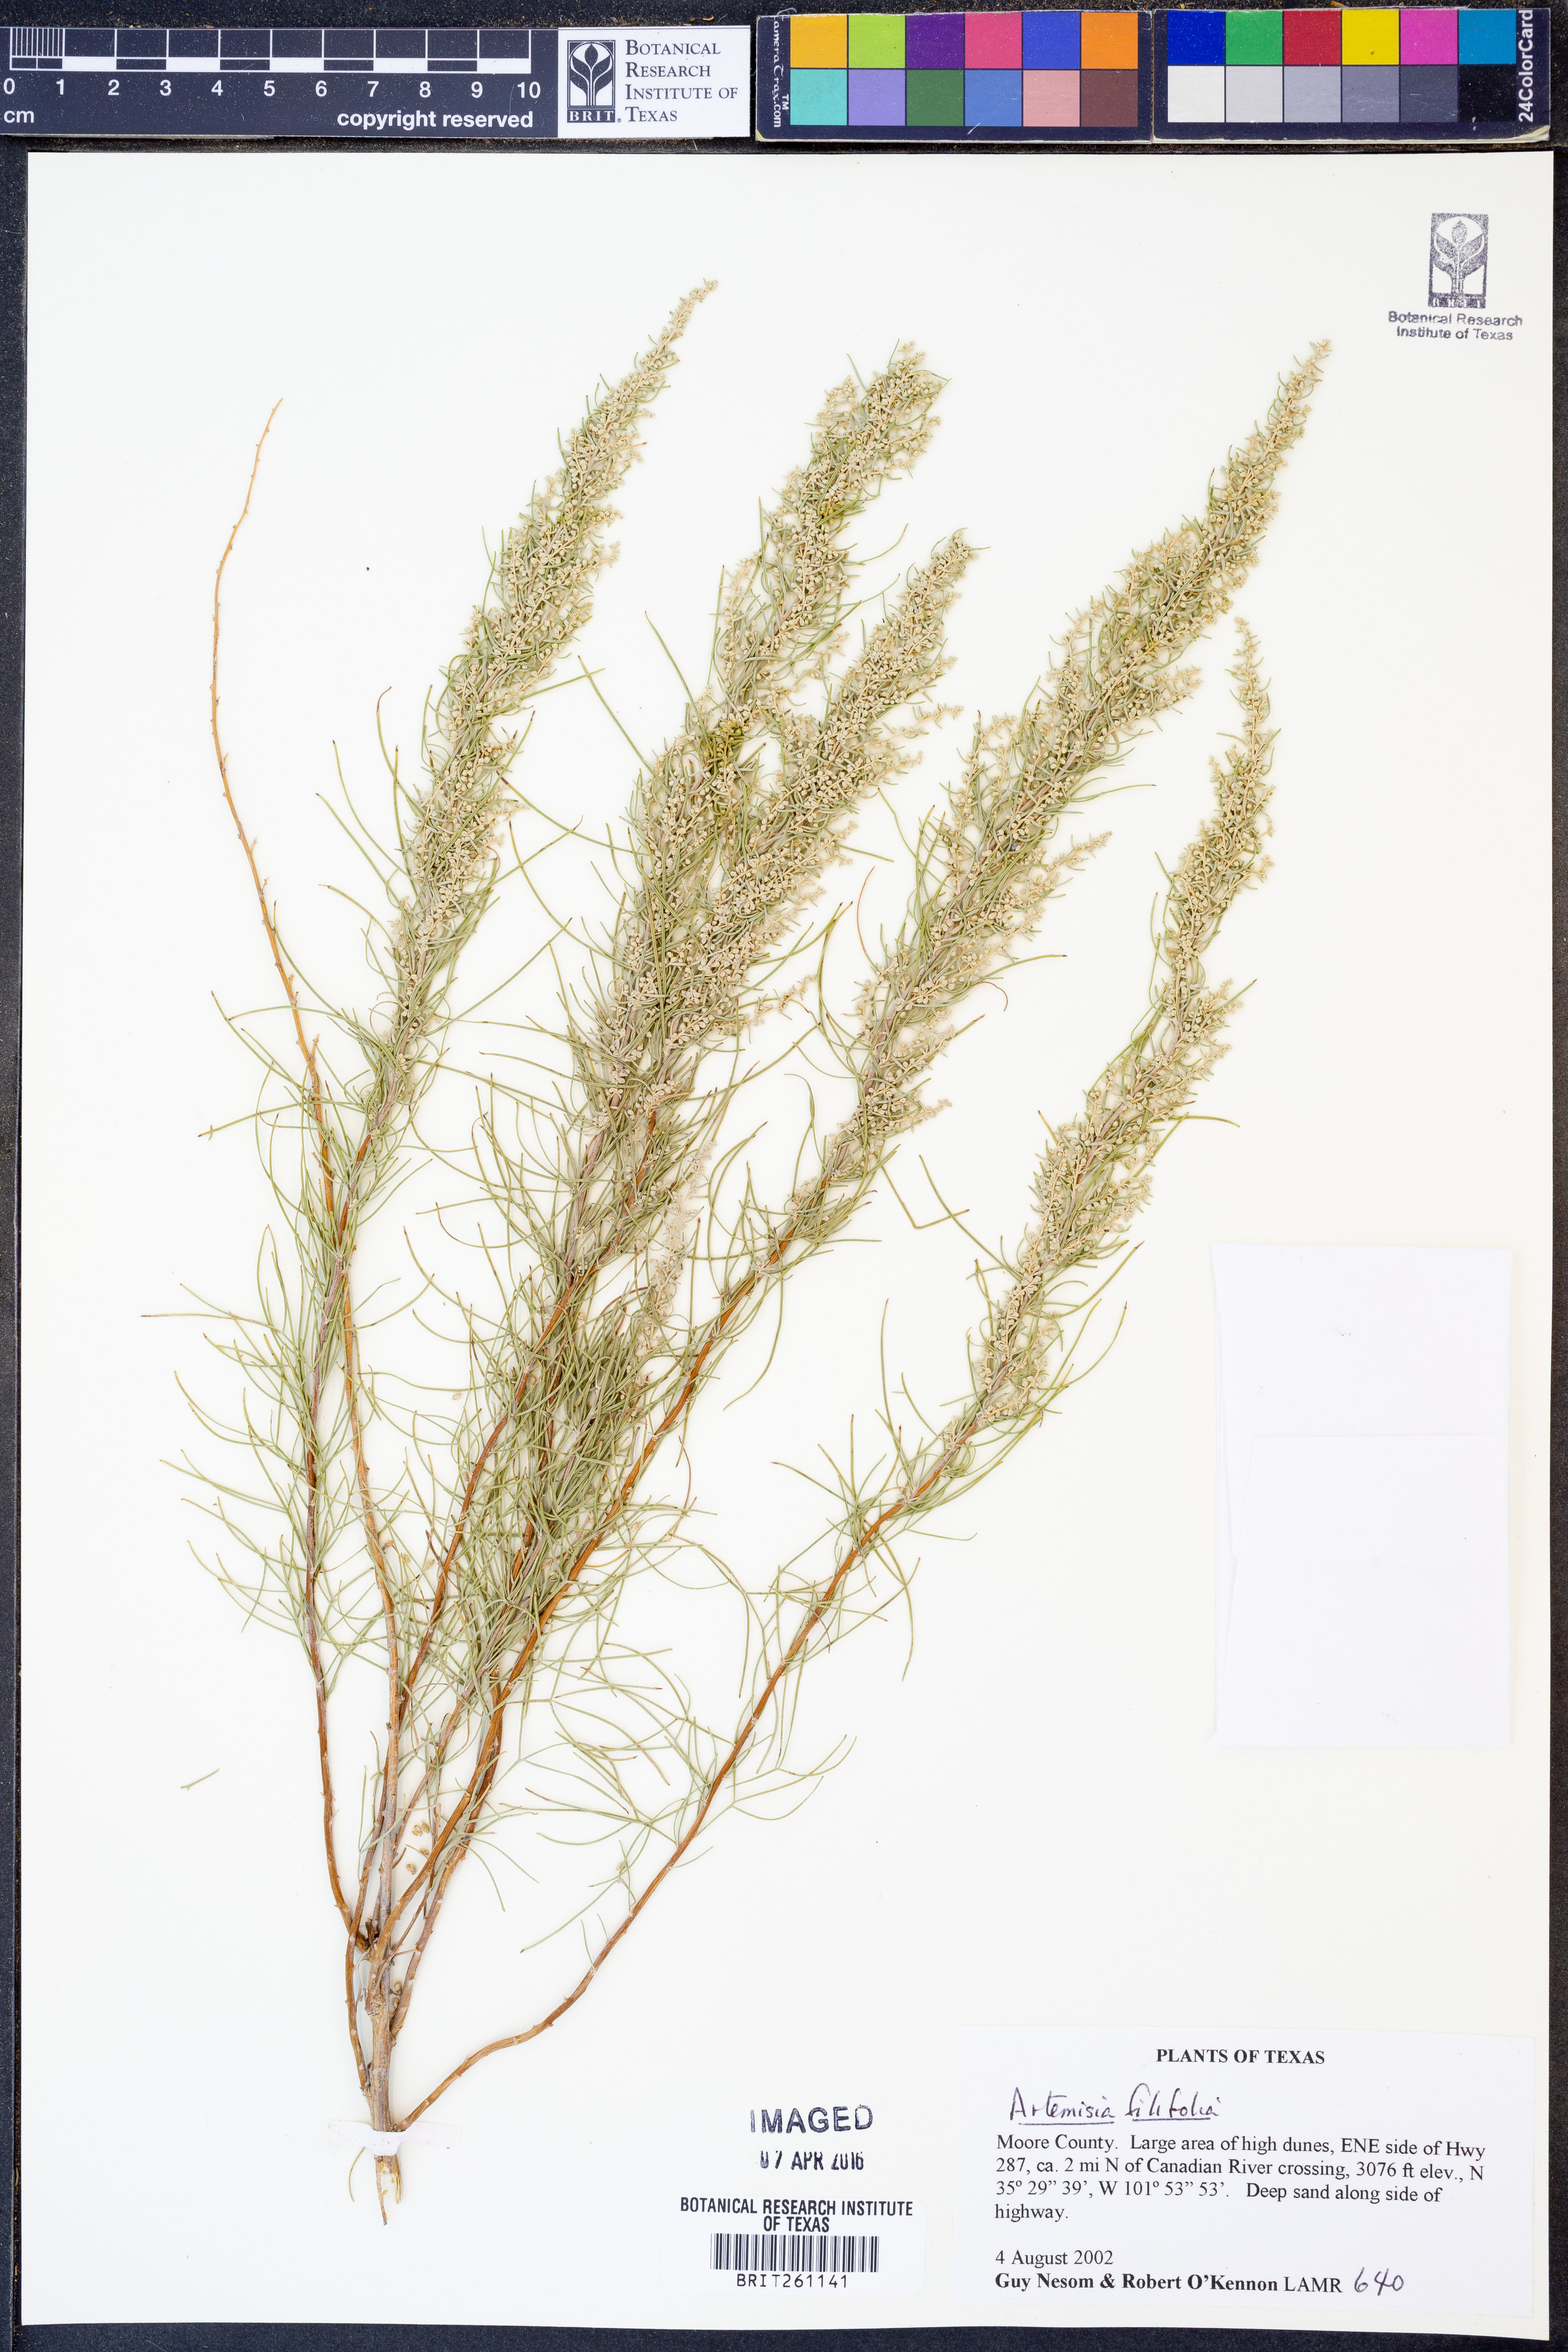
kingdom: Plantae
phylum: Tracheophyta
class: Magnoliopsida
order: Asterales
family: Asteraceae
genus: Artemisia
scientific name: Artemisia filifolia
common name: Sand-sage
